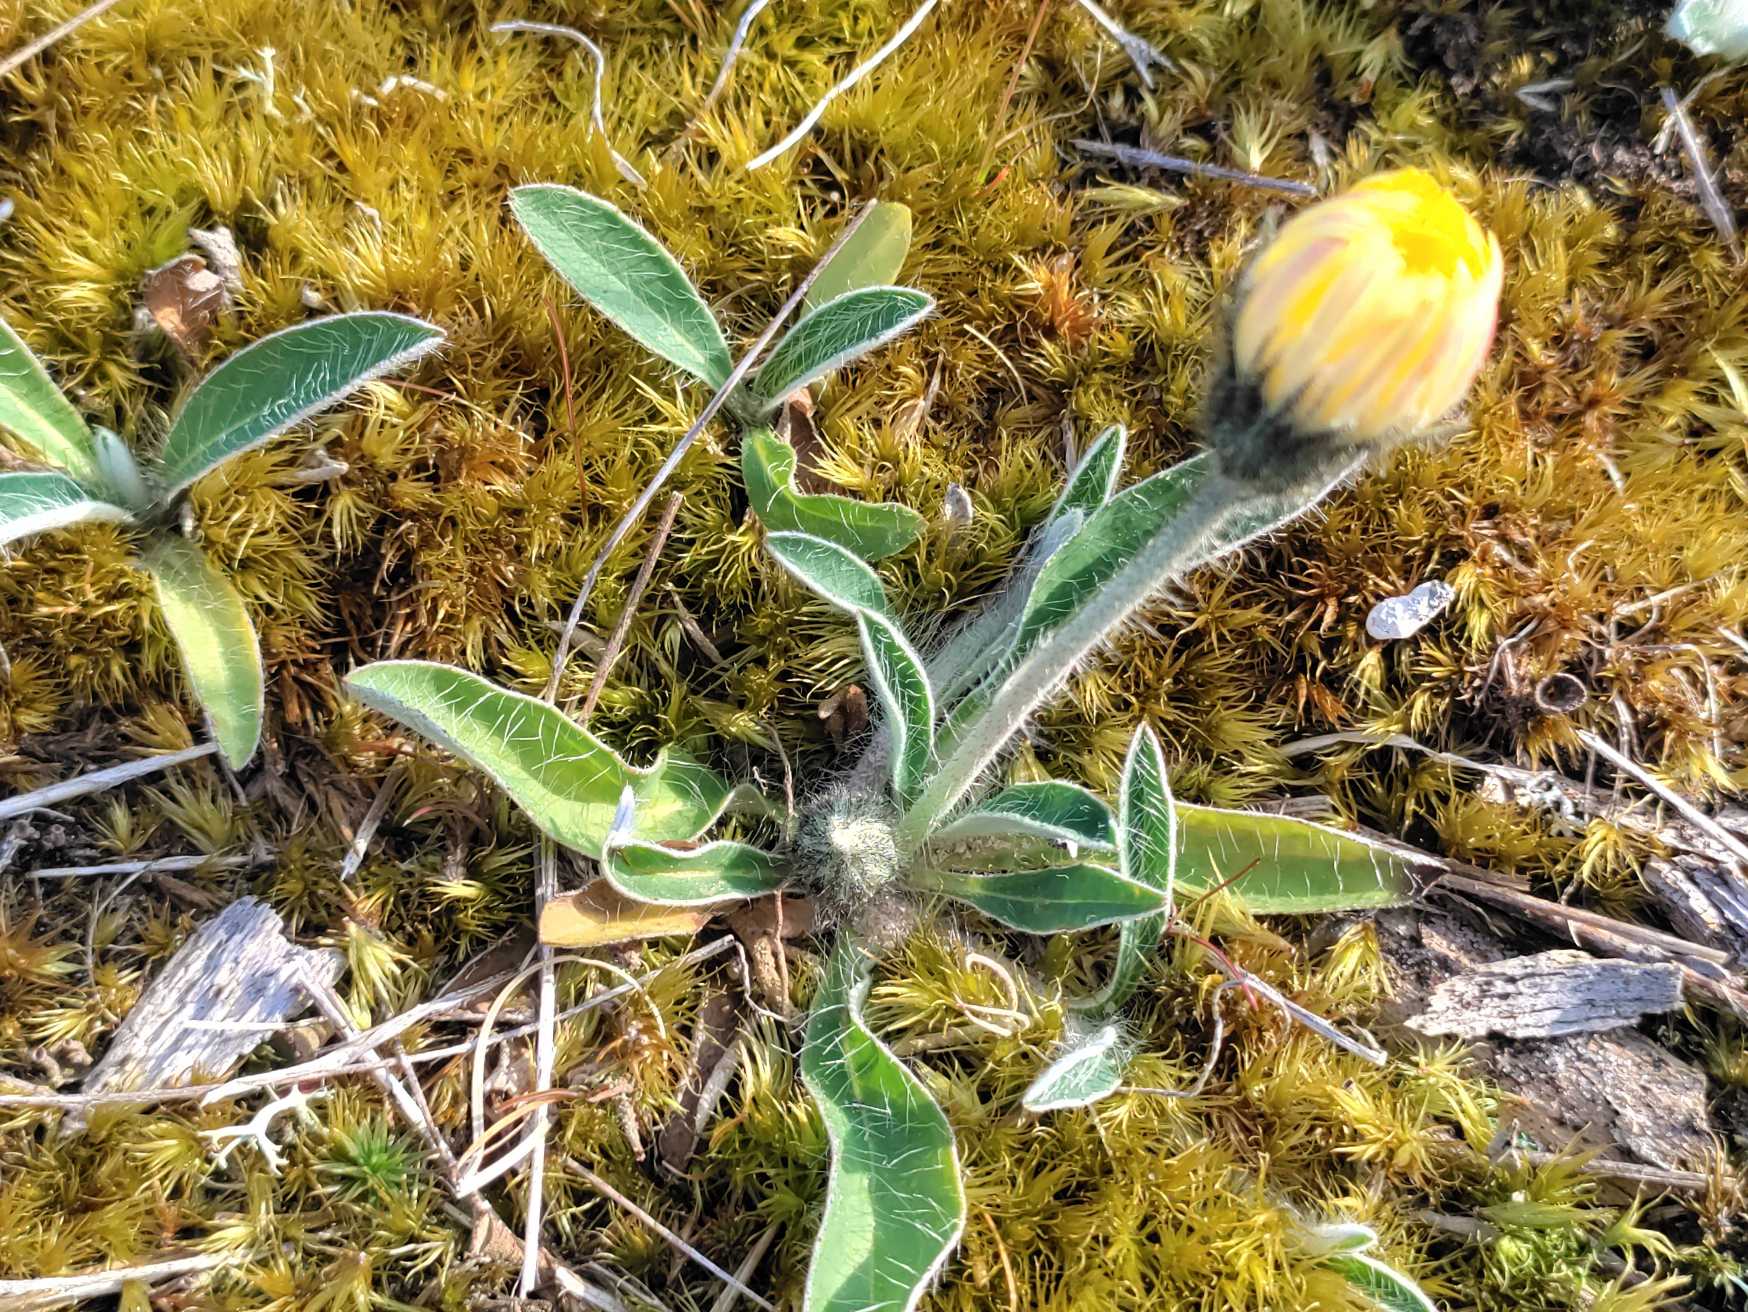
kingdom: Plantae
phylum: Tracheophyta
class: Magnoliopsida
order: Asterales
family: Asteraceae
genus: Pilosella
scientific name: Pilosella officinarum
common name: Håret høgeurt
